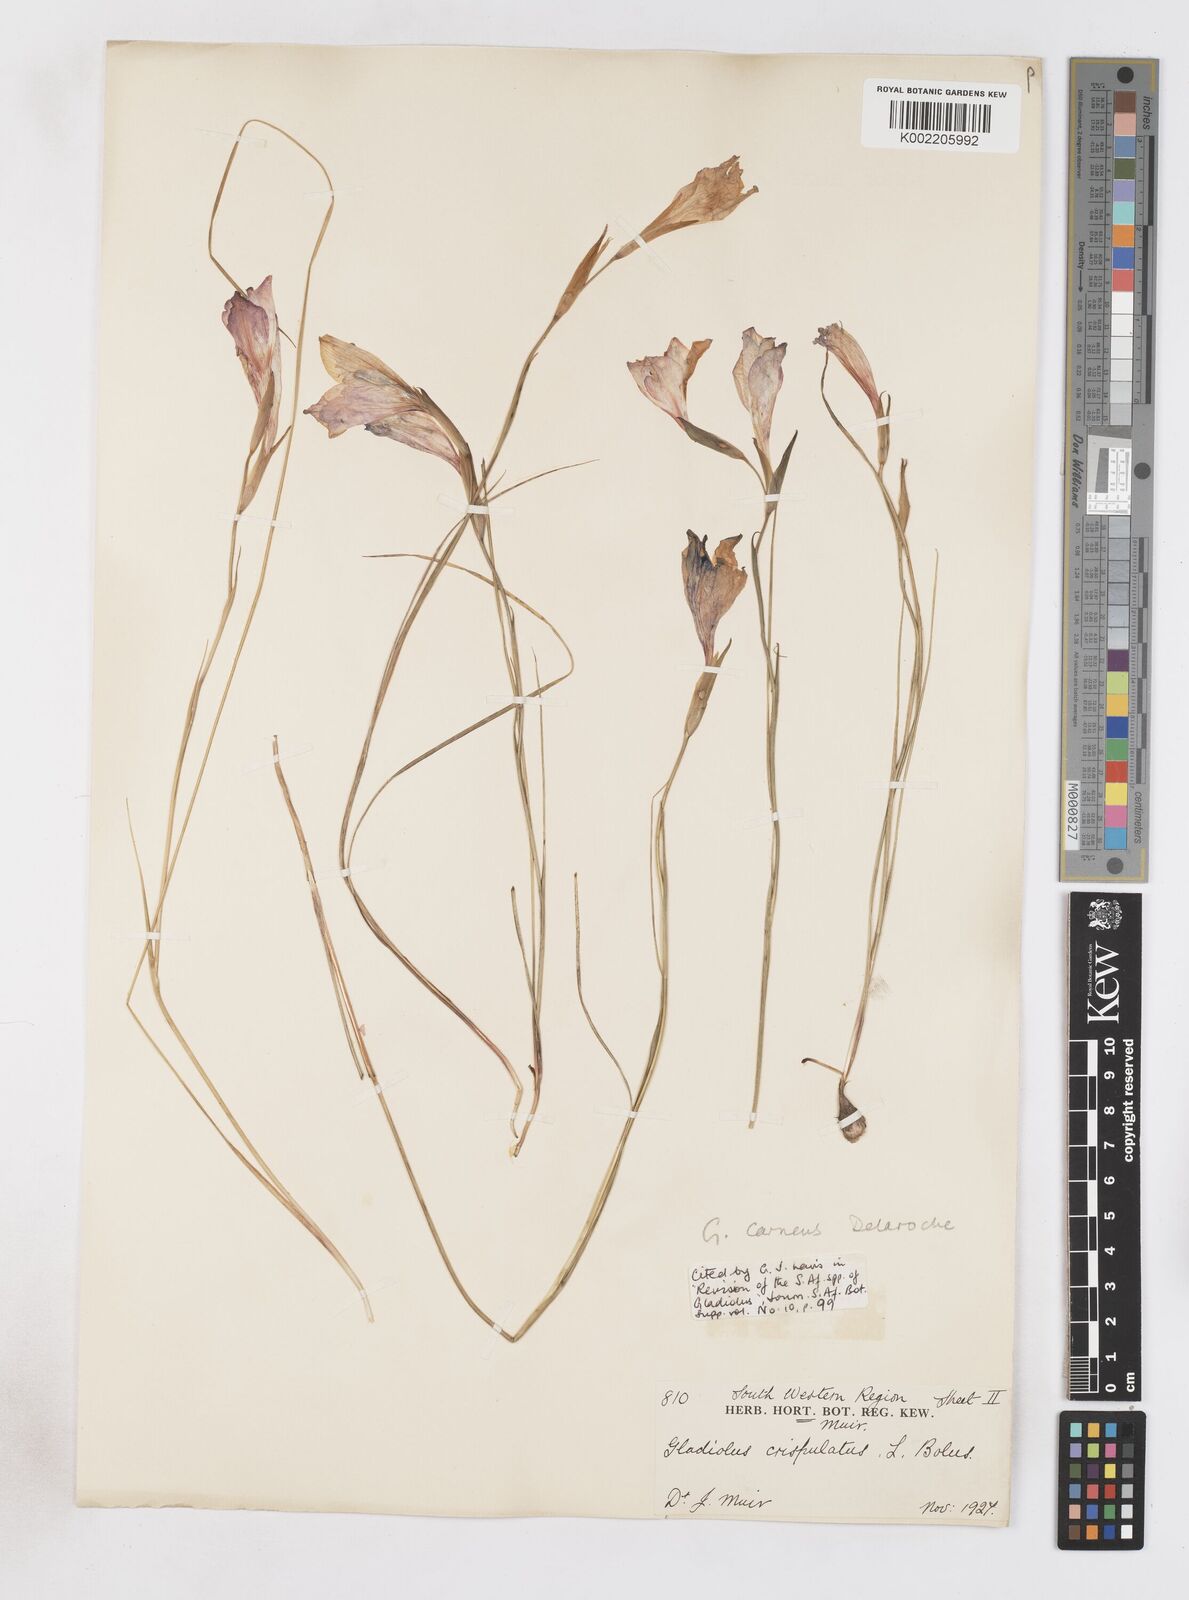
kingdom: Plantae
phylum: Tracheophyta
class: Liliopsida
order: Asparagales
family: Iridaceae
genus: Gladiolus
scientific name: Gladiolus oreocharis
